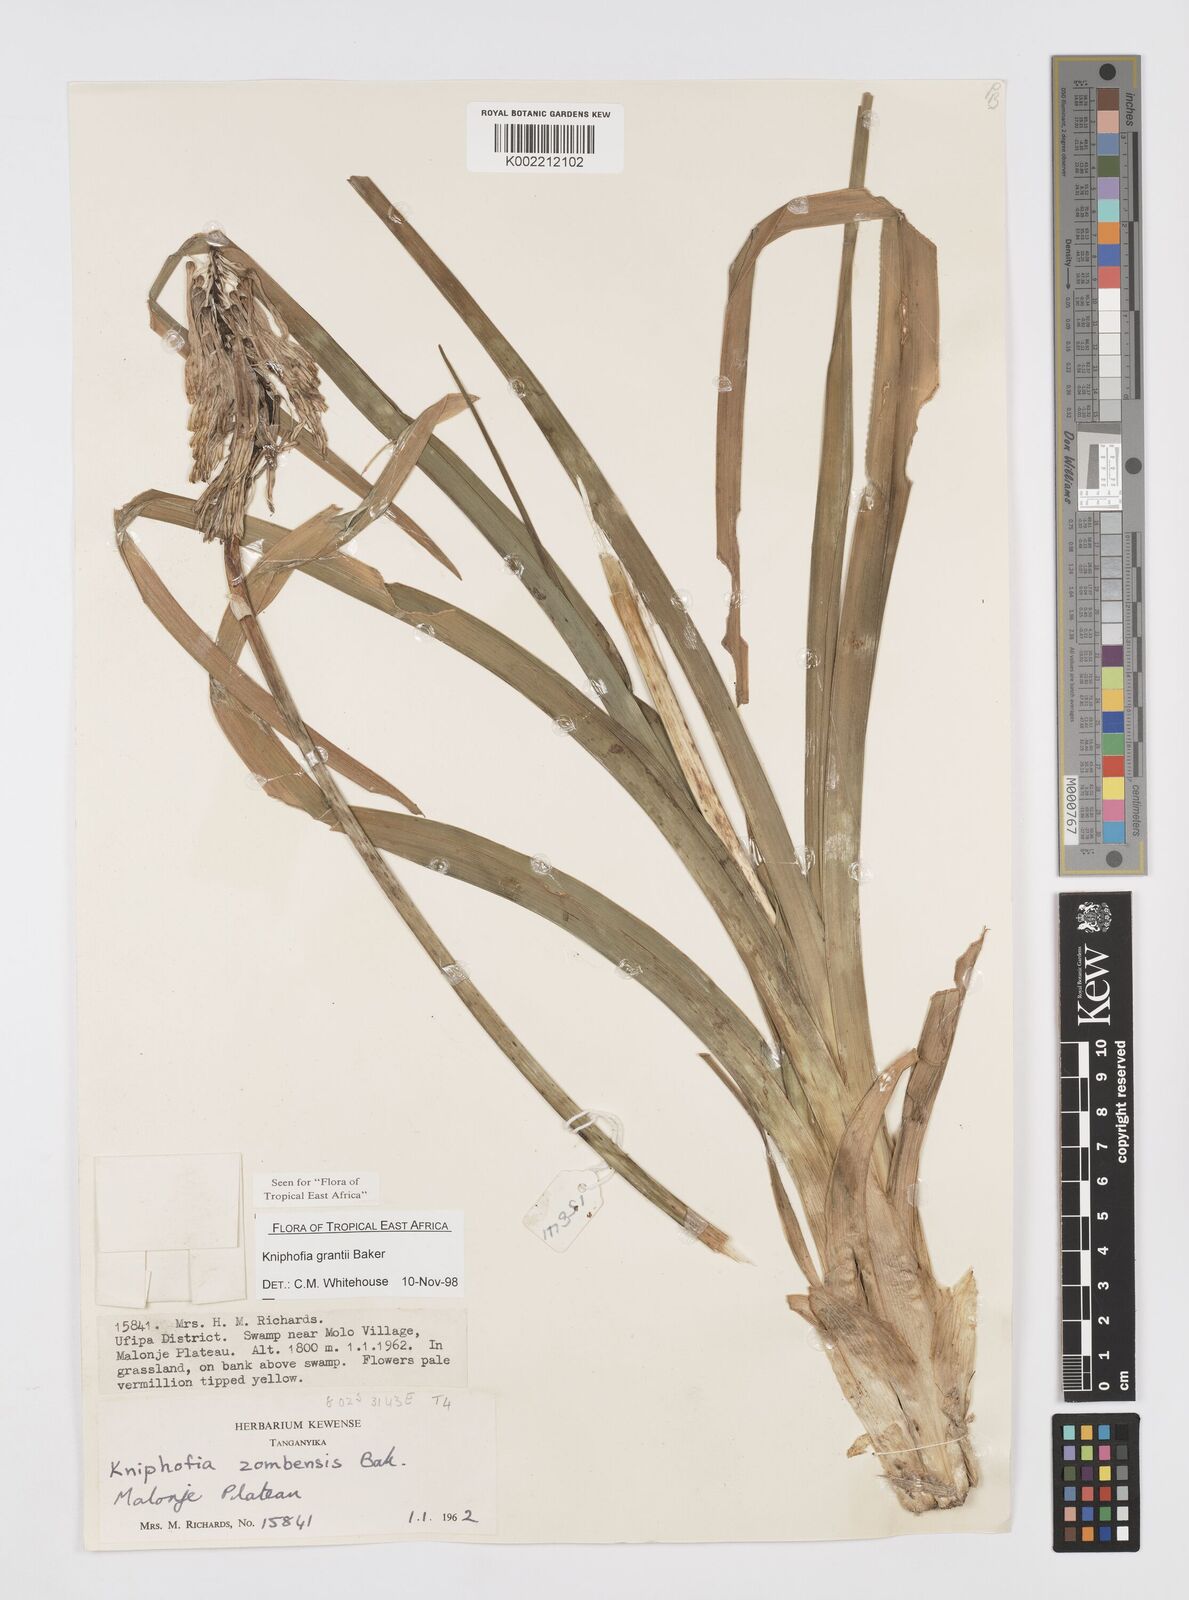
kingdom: Plantae
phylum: Tracheophyta
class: Liliopsida
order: Asparagales
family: Asphodelaceae
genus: Kniphofia
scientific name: Kniphofia grantii
